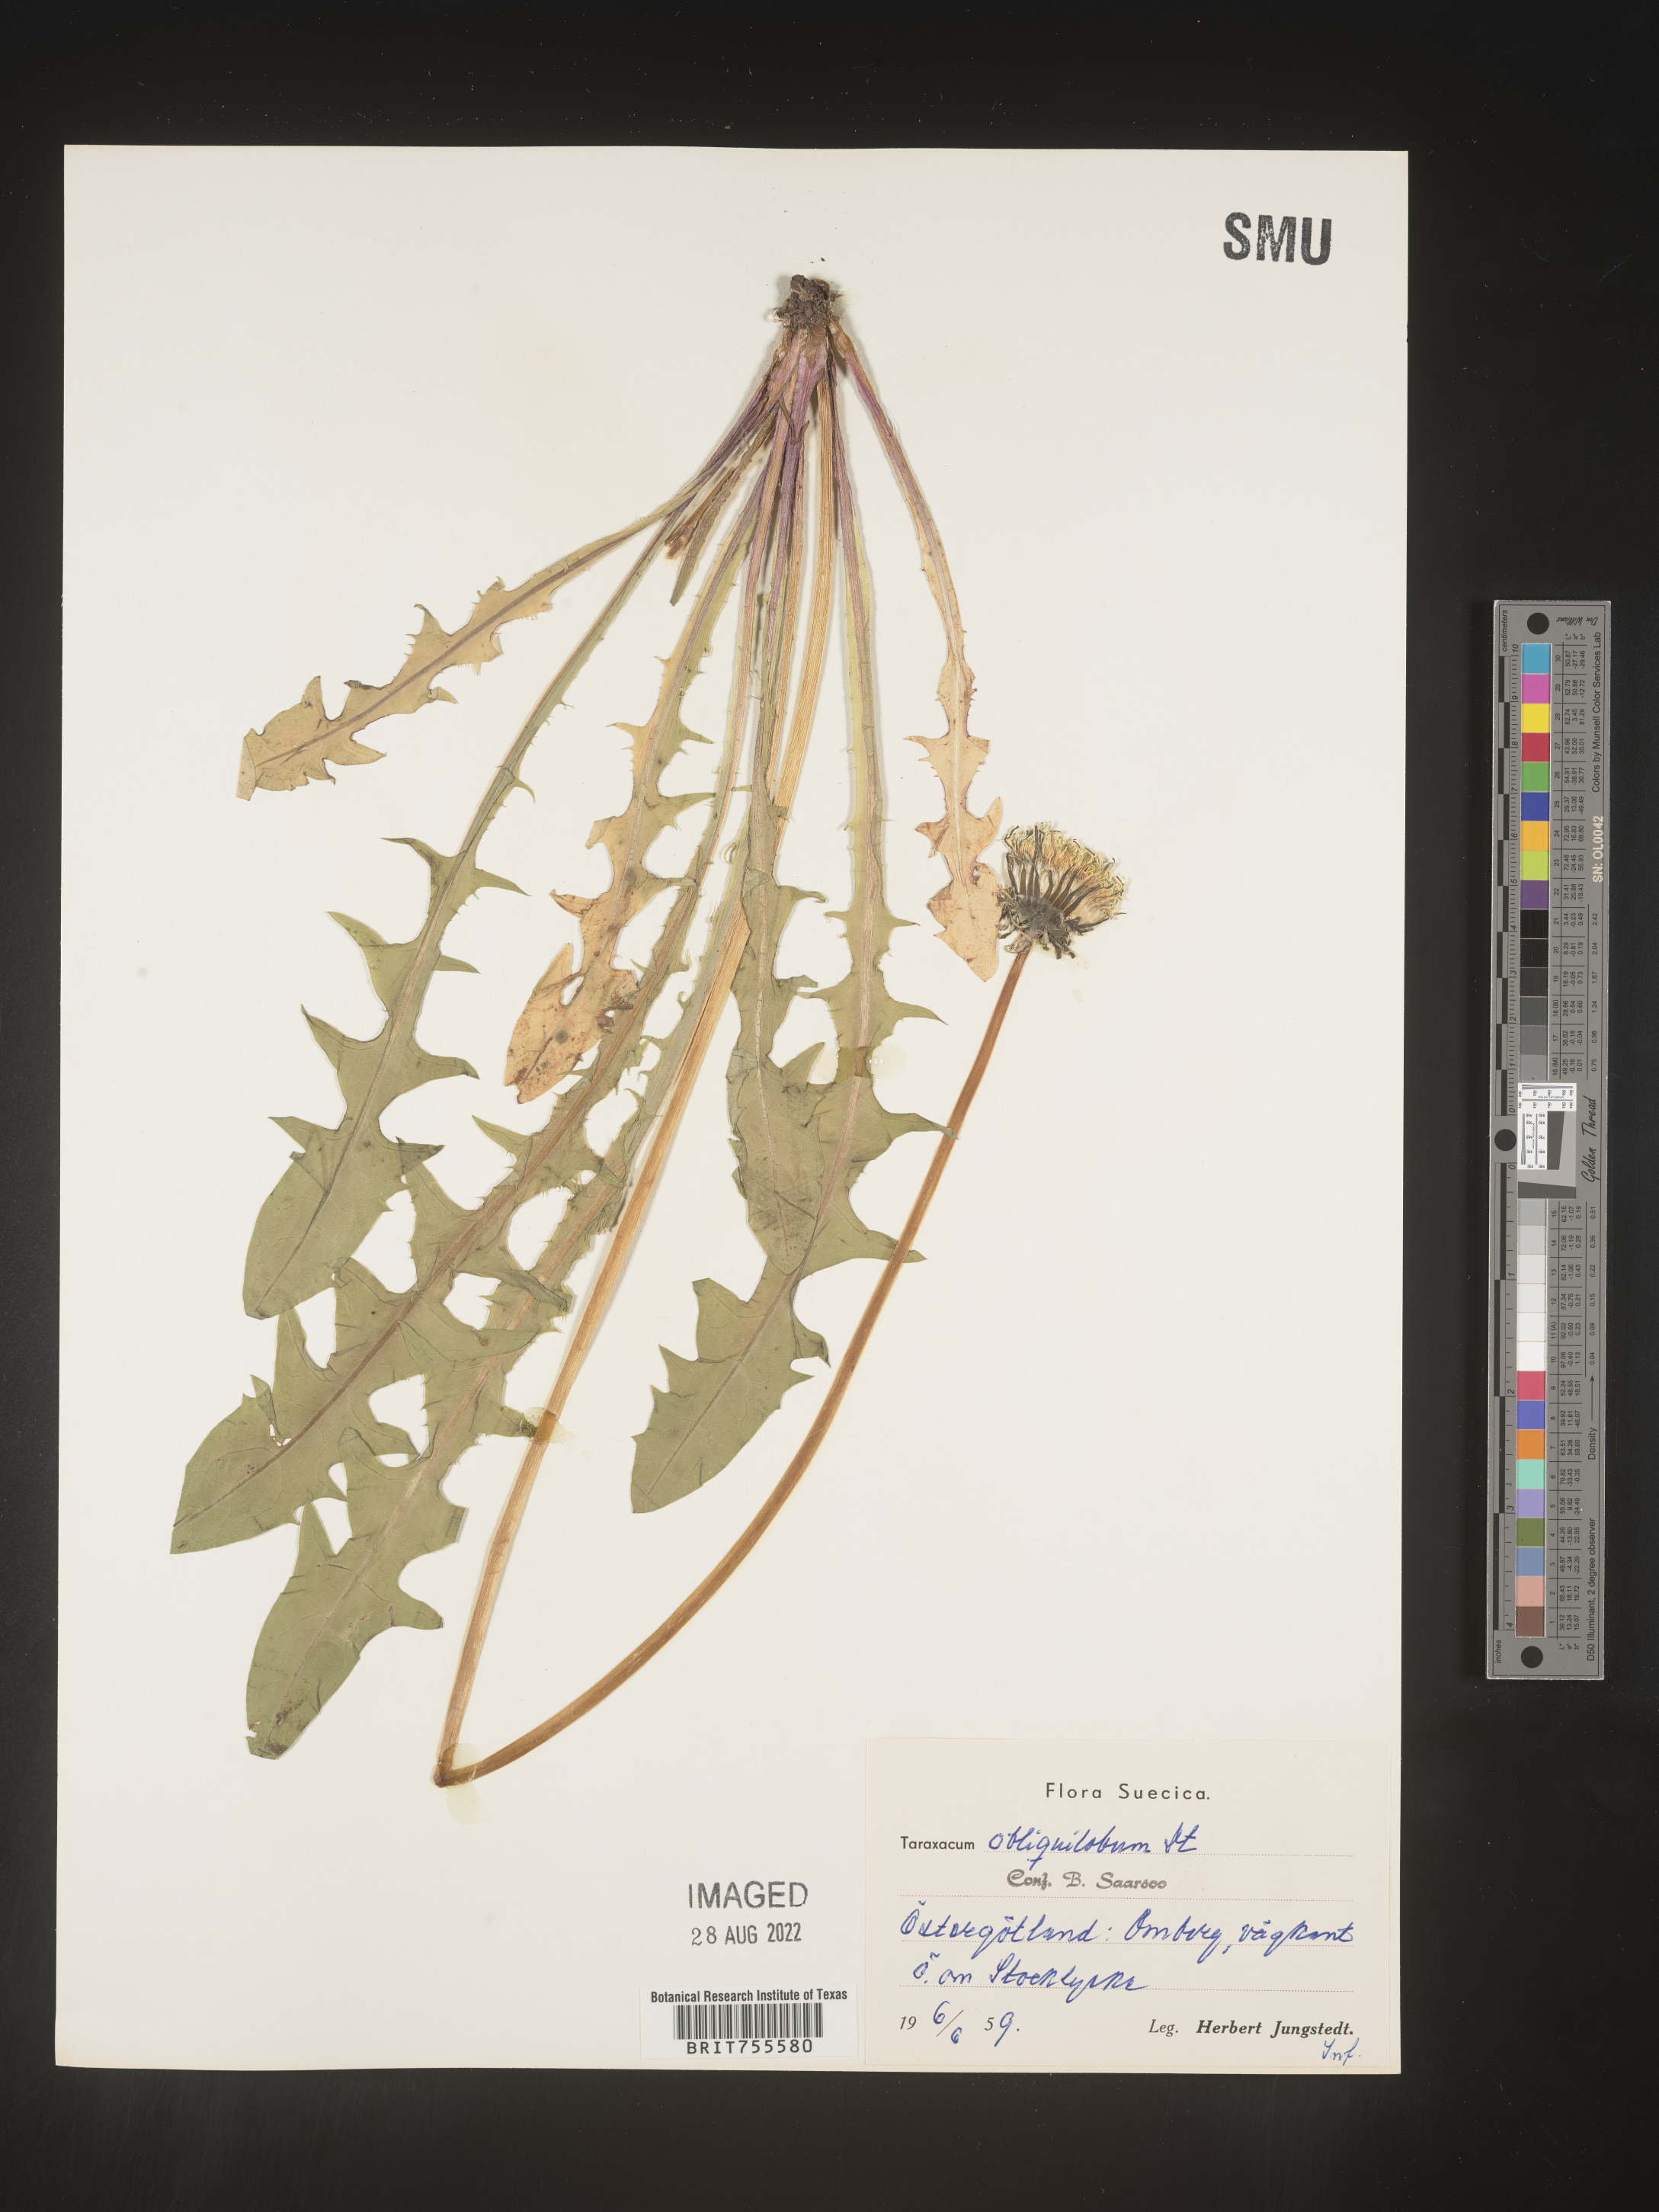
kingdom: Plantae
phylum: Tracheophyta
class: Magnoliopsida
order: Asterales
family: Asteraceae
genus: Taraxacum
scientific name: Taraxacum
